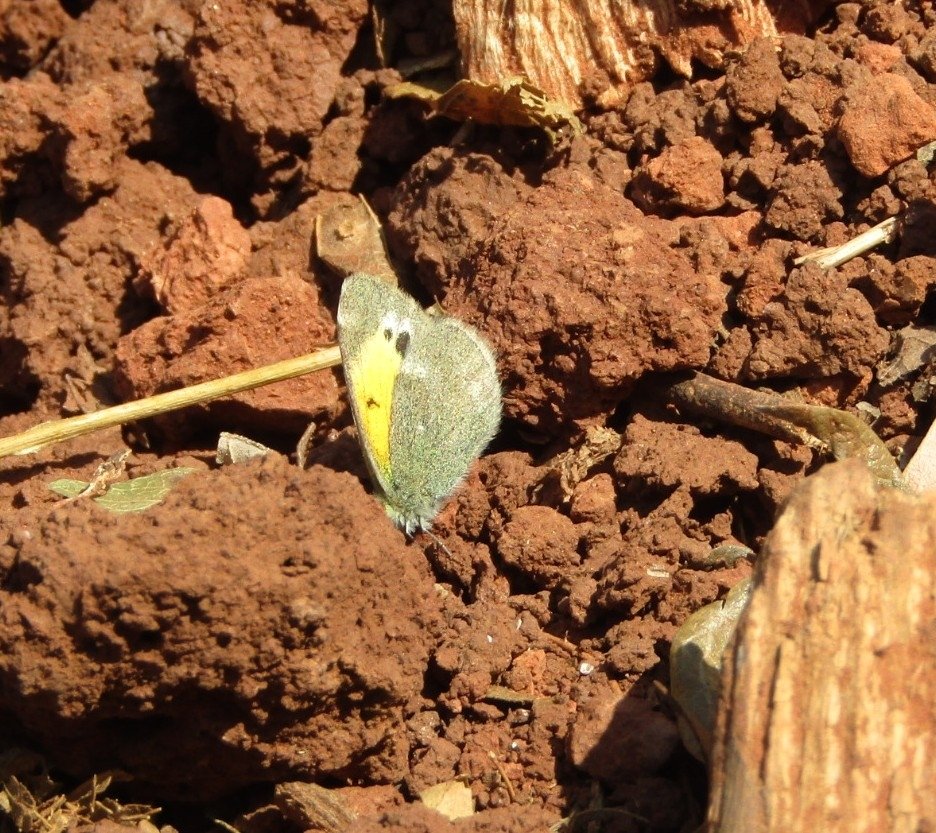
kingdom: Animalia
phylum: Arthropoda
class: Insecta
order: Lepidoptera
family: Pieridae
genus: Nathalis
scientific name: Nathalis iole
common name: Dainty Sulphur
